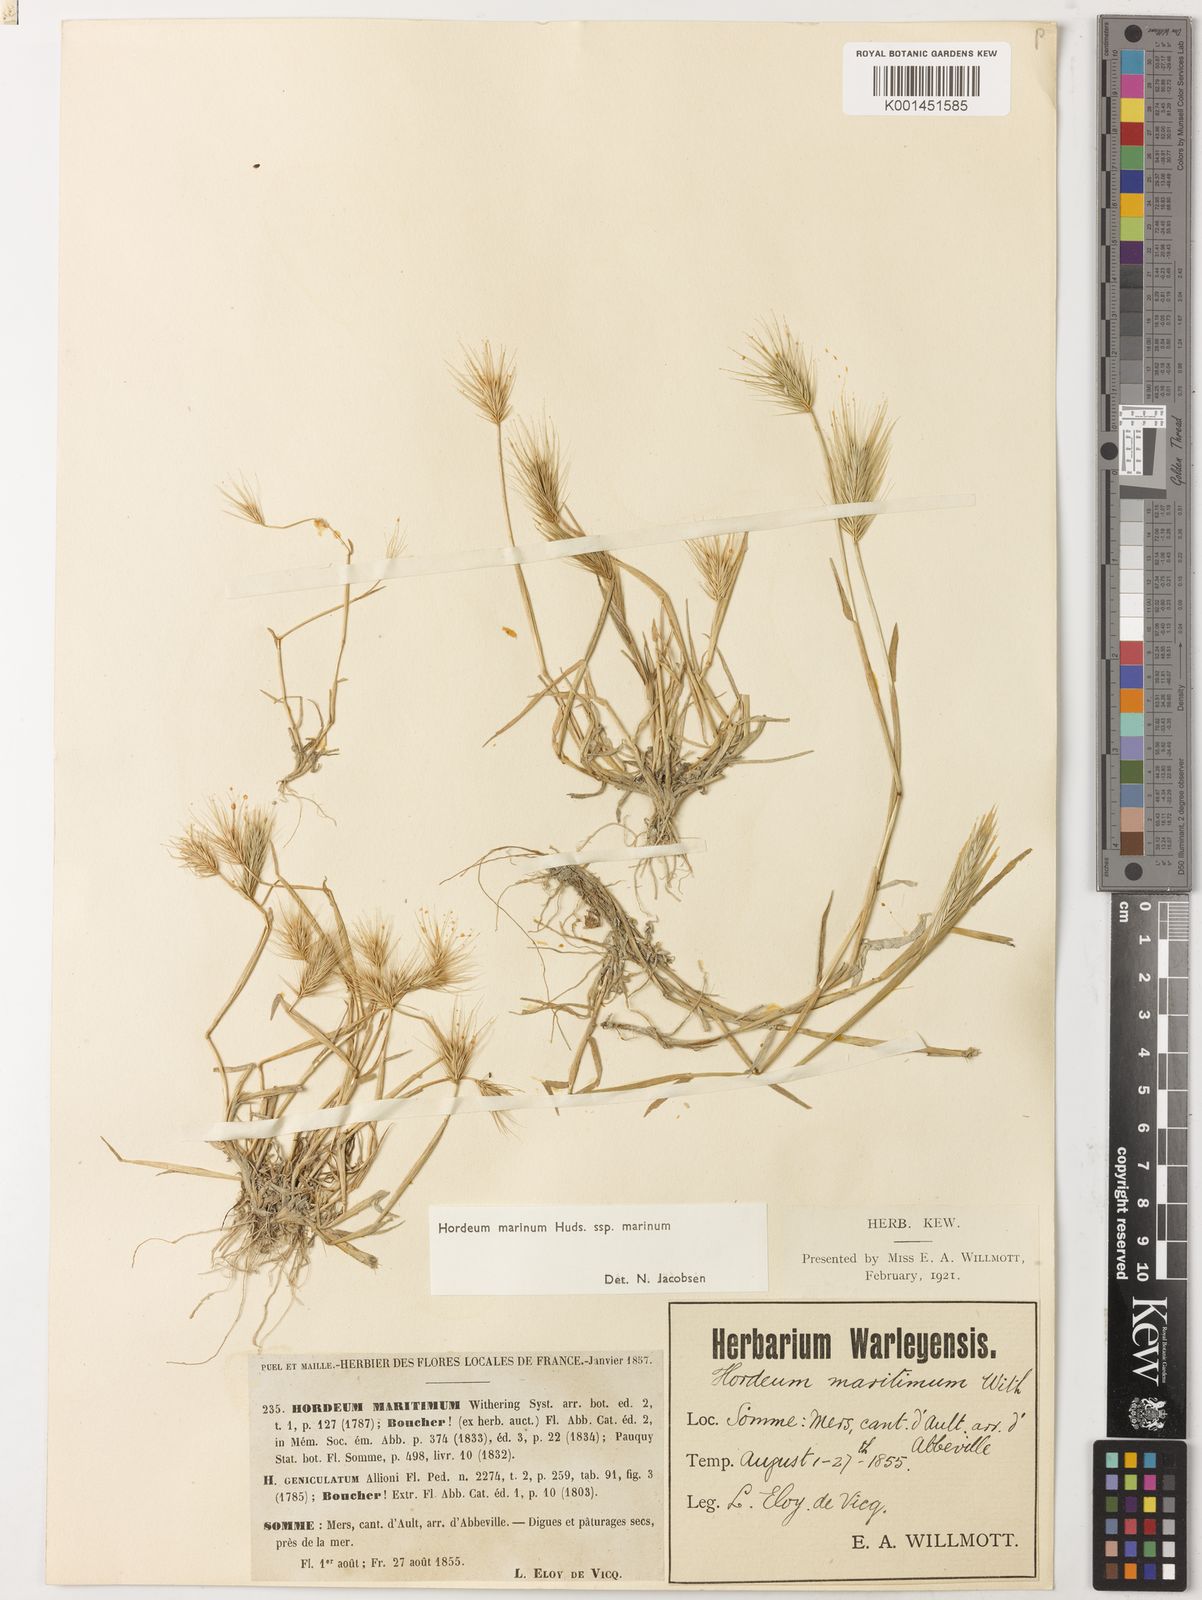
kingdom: Plantae
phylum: Tracheophyta
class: Liliopsida
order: Poales
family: Poaceae
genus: Hordeum
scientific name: Hordeum marinum
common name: Sea barley
